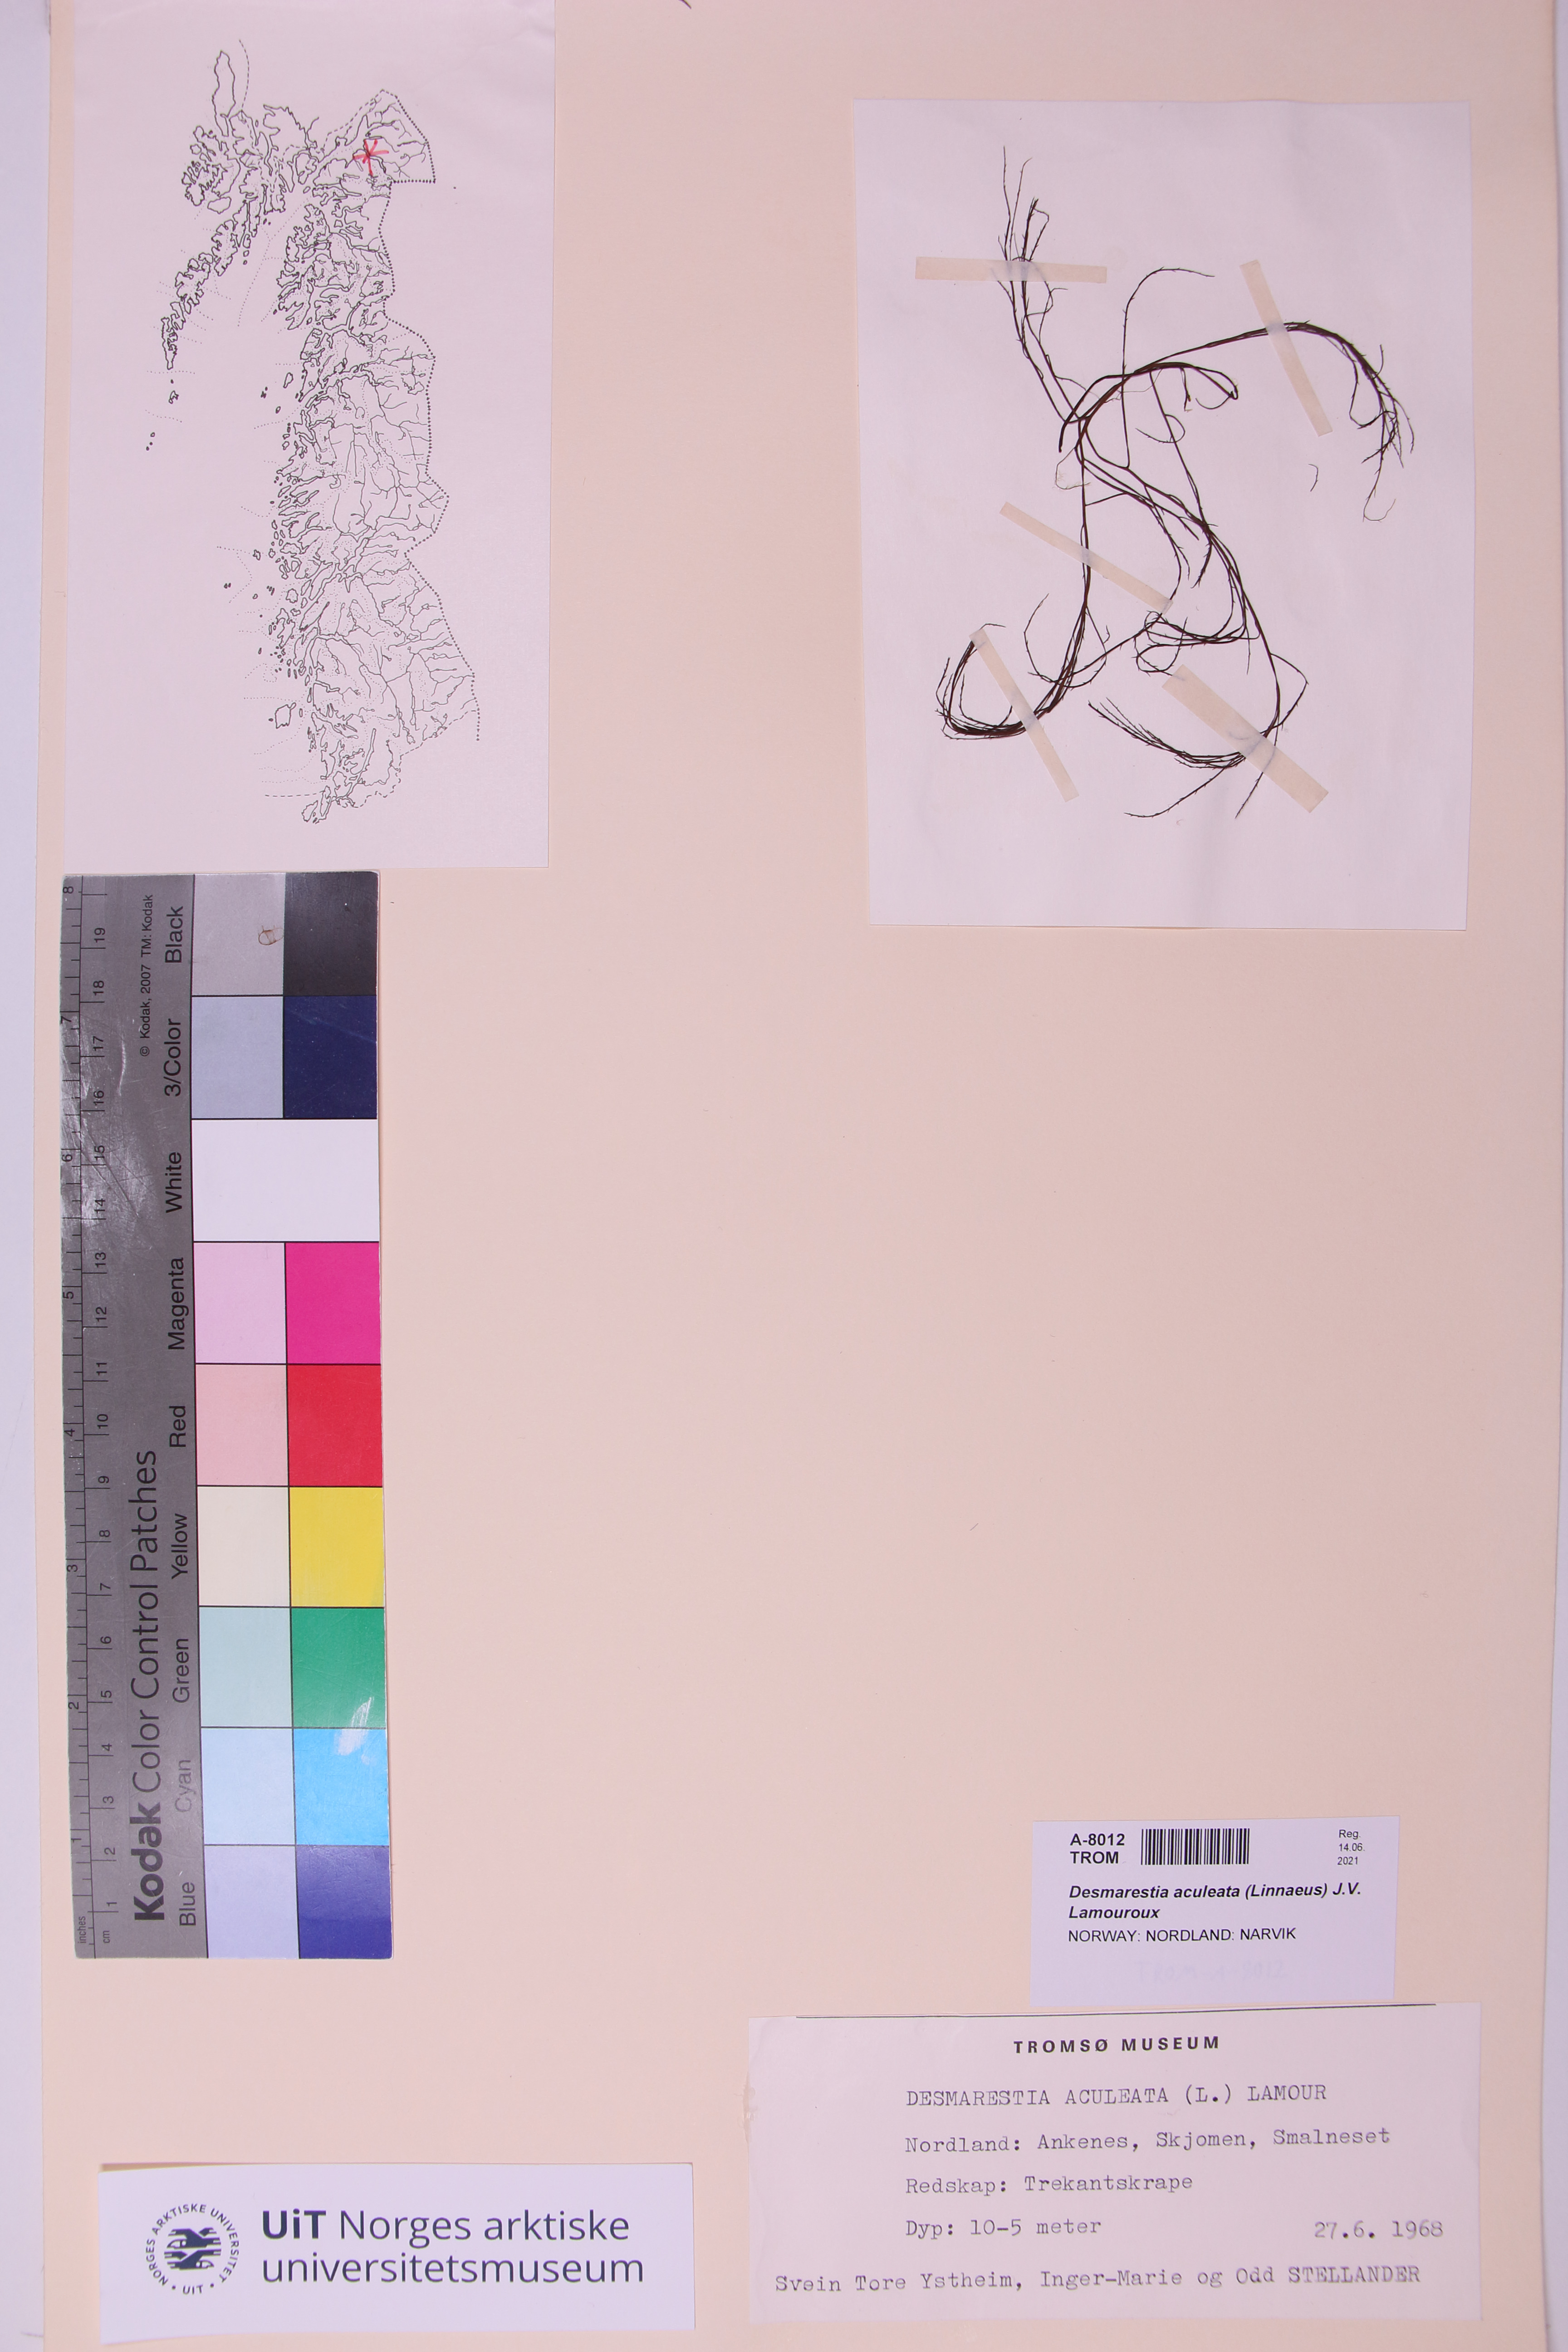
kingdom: Chromista
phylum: Ochrophyta
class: Phaeophyceae
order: Desmarestiales
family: Desmarestiaceae
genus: Desmarestia
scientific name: Desmarestia aculeata
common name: Witch's hair
